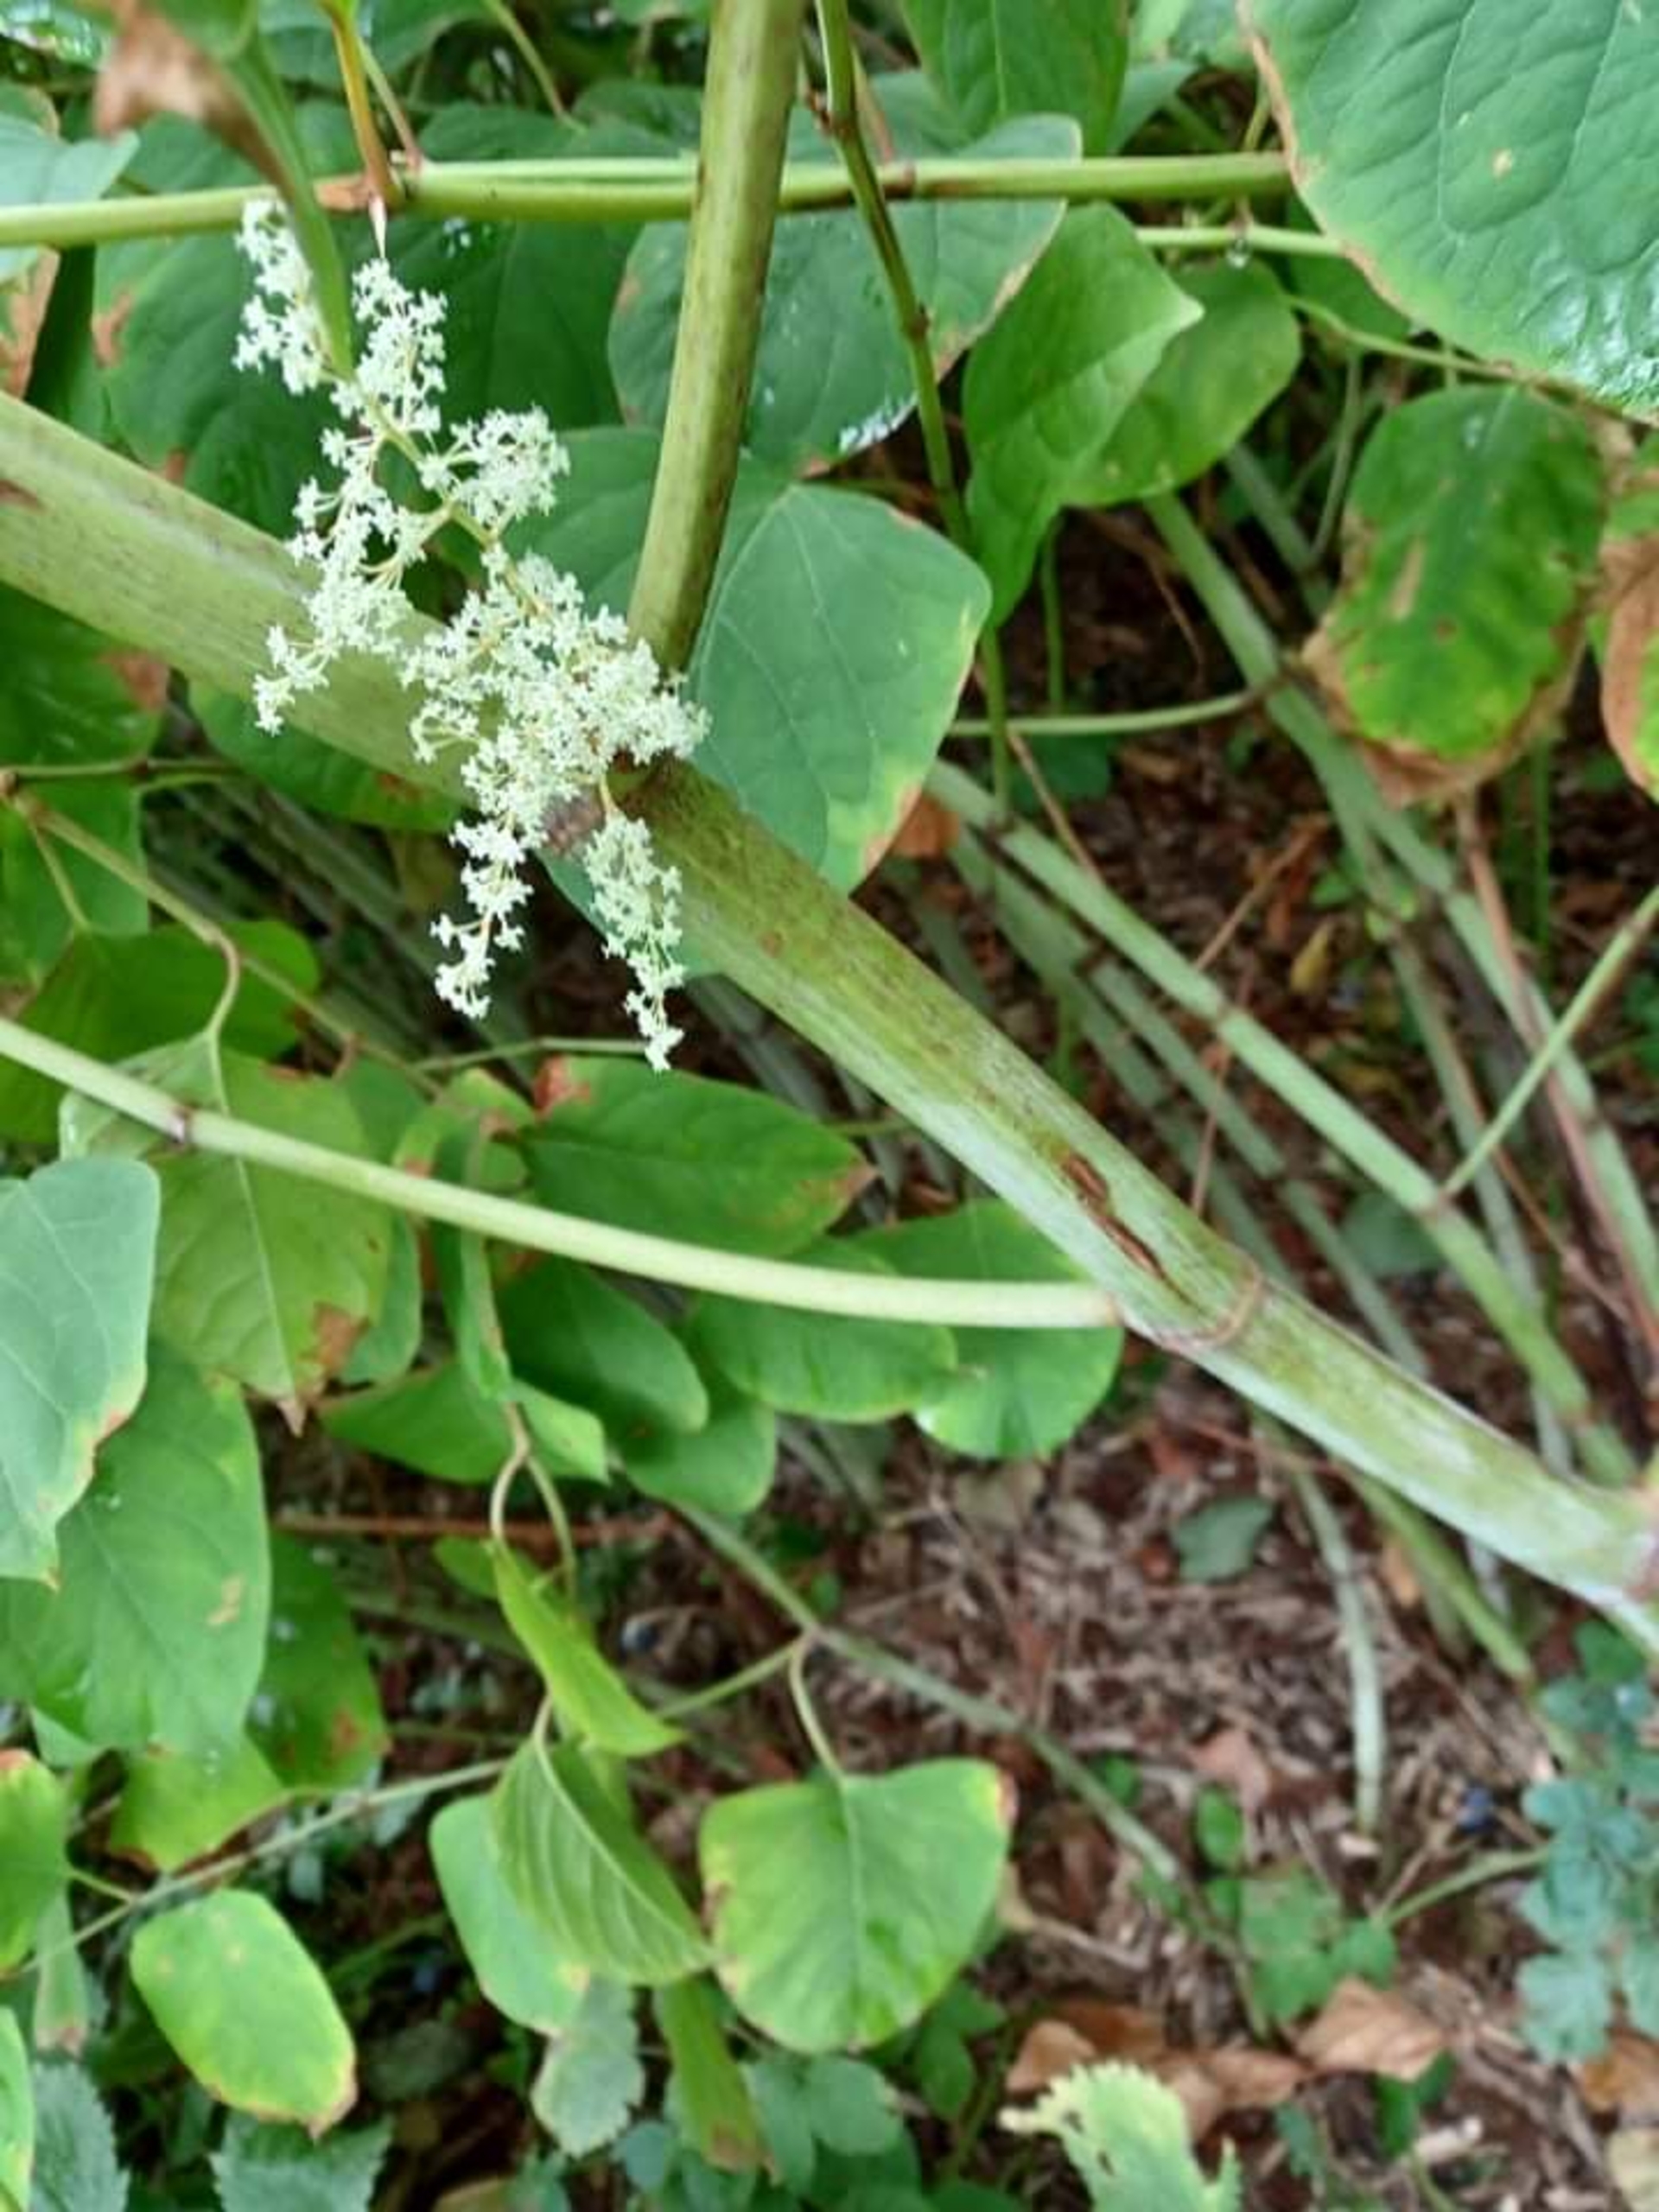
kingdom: Plantae
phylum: Tracheophyta
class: Magnoliopsida
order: Caryophyllales
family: Polygonaceae
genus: Reynoutria
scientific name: Reynoutria japonica
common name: Japan-pileurt
